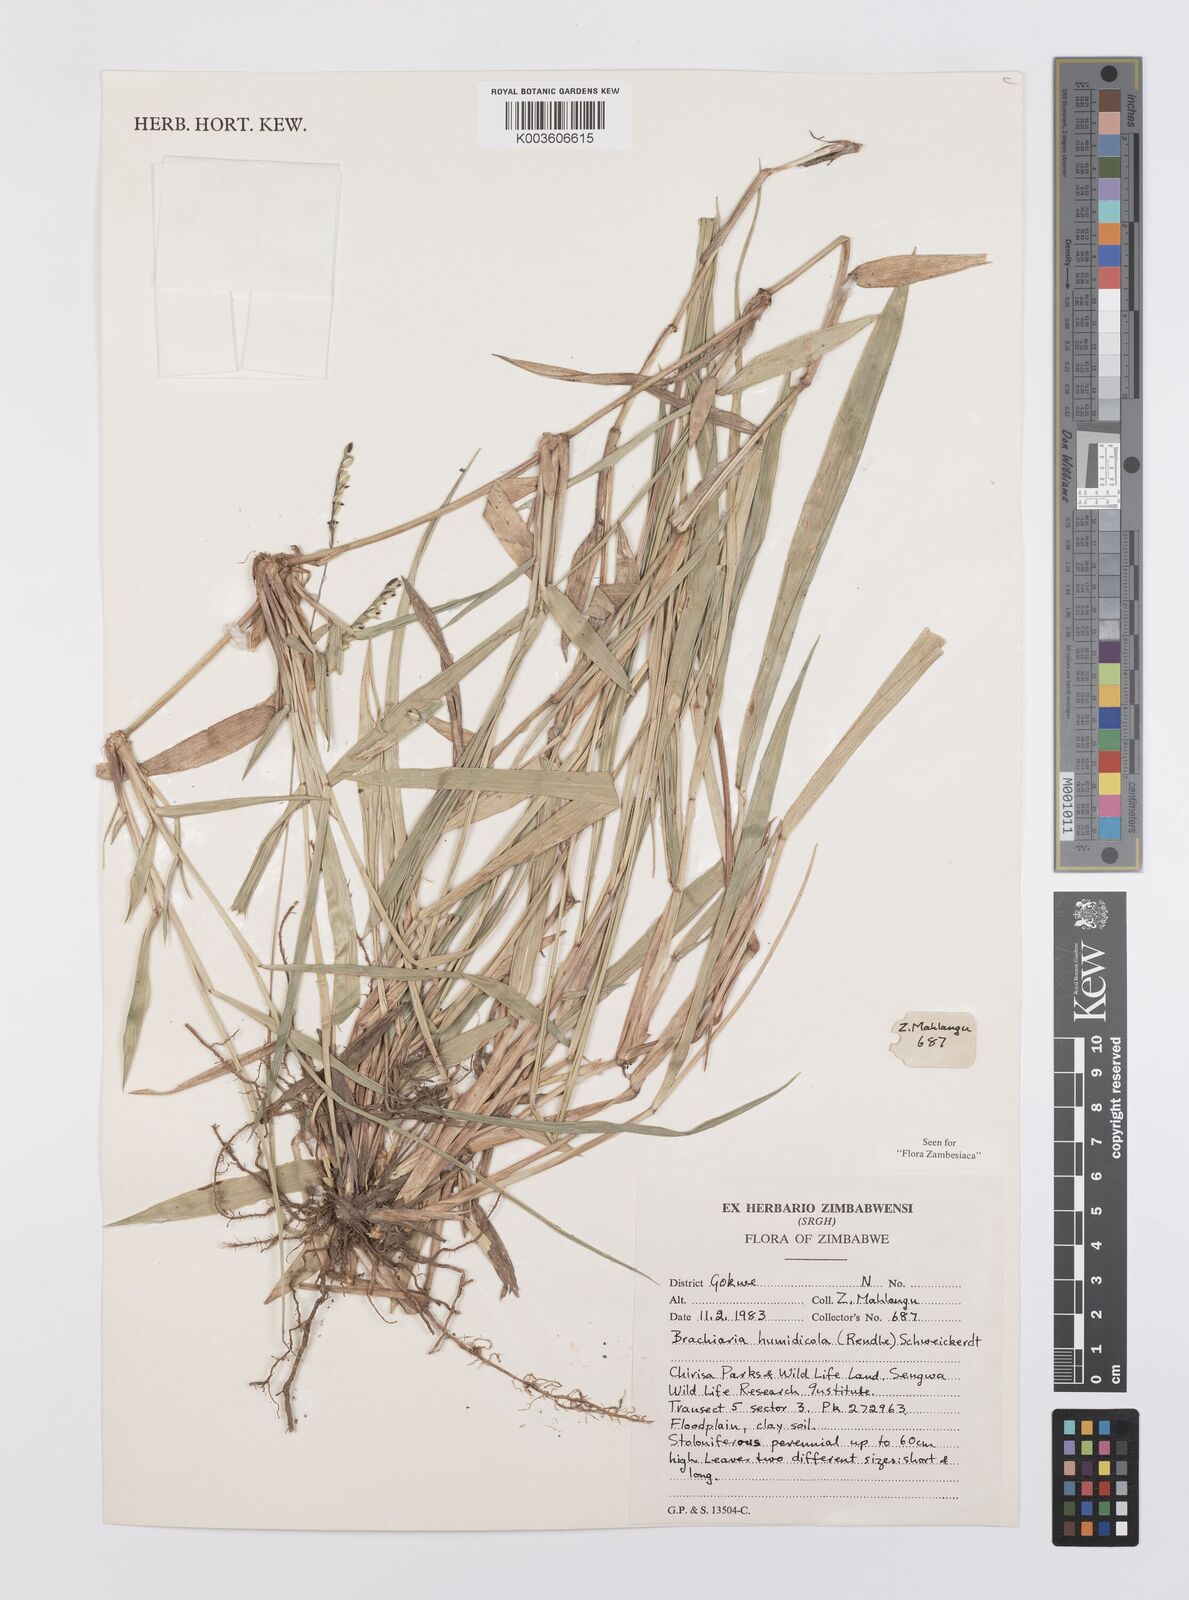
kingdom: Plantae
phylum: Tracheophyta
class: Liliopsida
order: Poales
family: Poaceae
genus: Urochloa
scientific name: Urochloa dictyoneura
